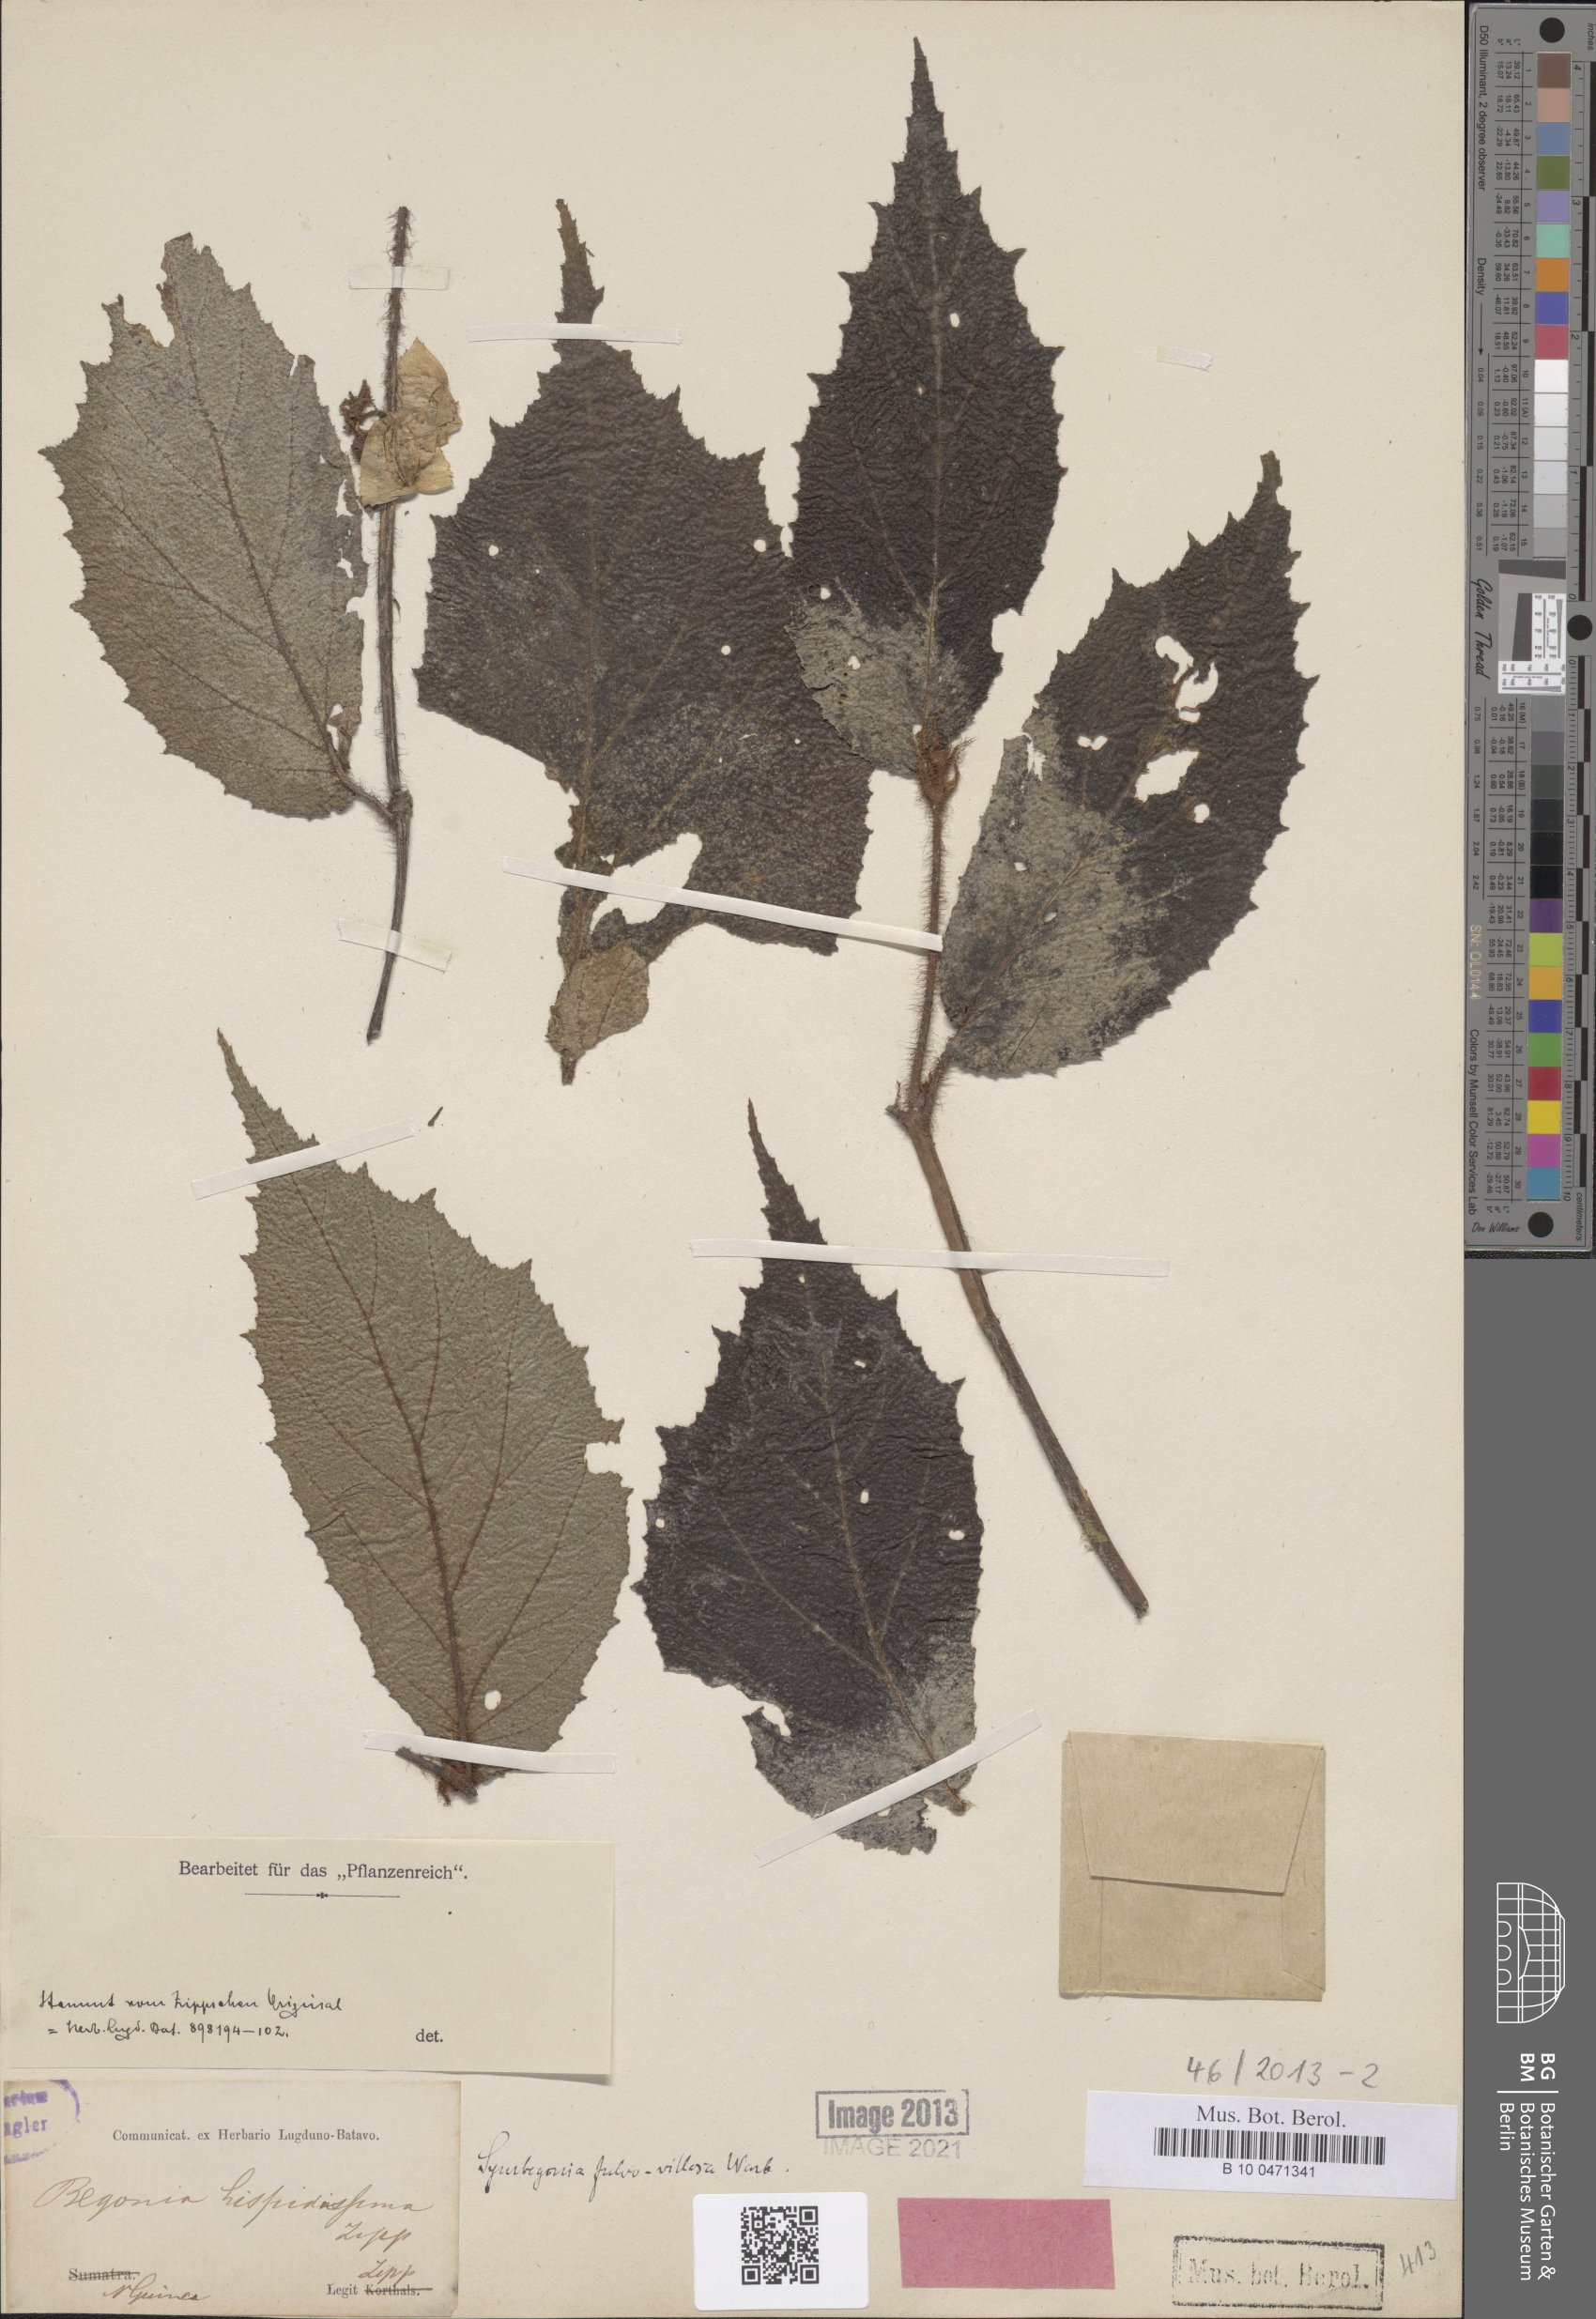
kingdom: Plantae
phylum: Tracheophyta
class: Magnoliopsida
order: Cucurbitales
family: Begoniaceae
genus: Begonia
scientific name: Begonia fulvovillosa
